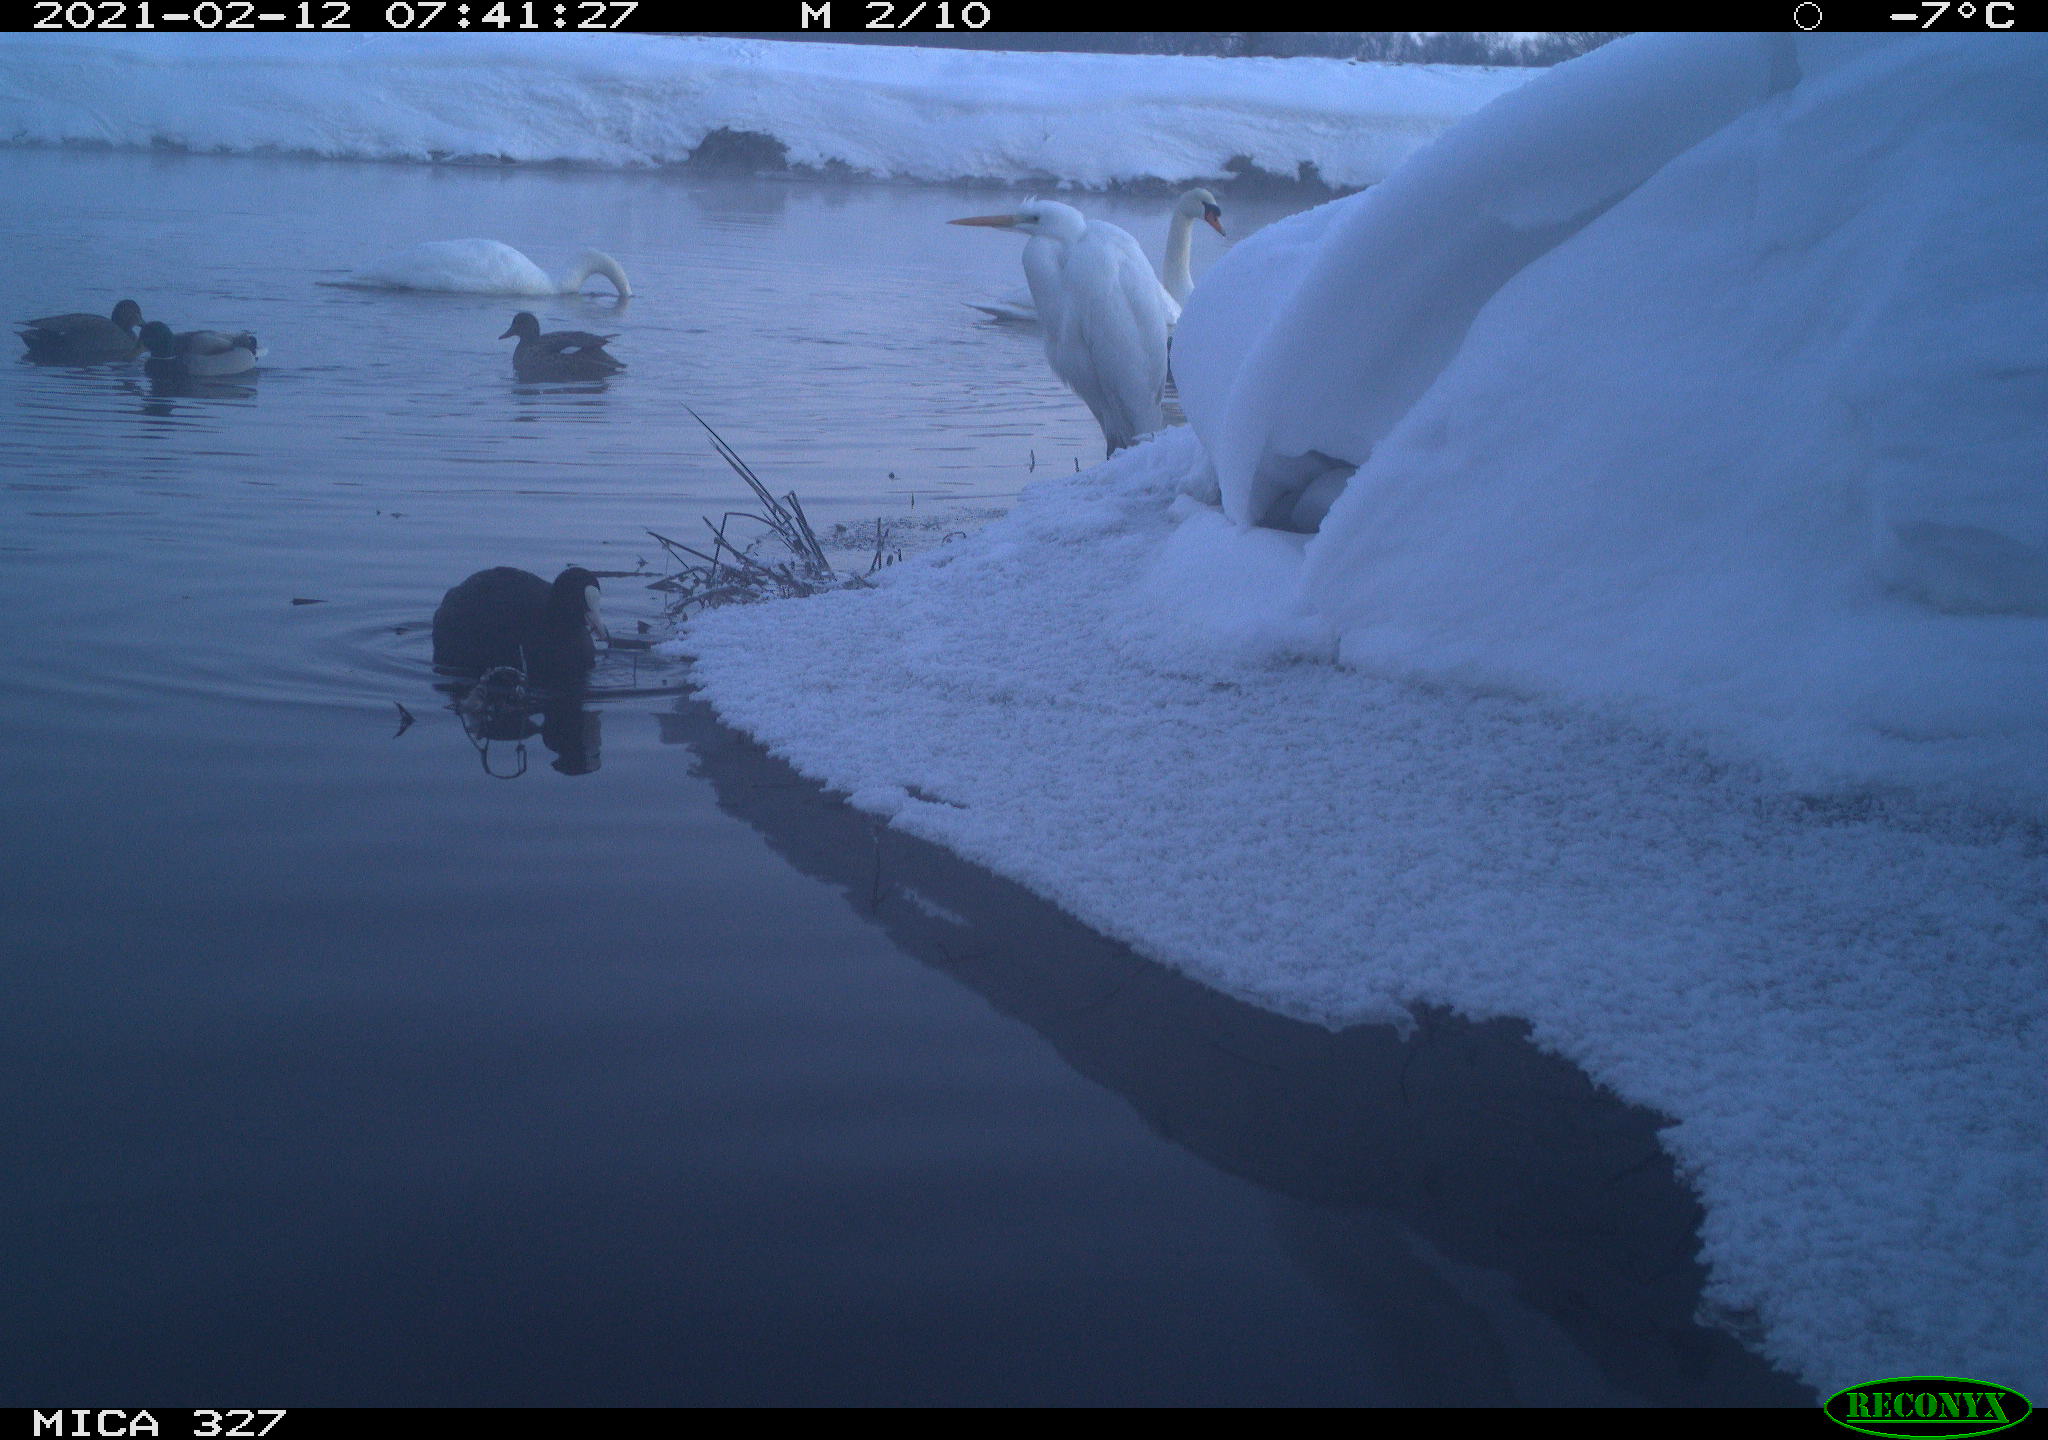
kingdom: Animalia
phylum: Chordata
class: Aves
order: Pelecaniformes
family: Ardeidae
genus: Ardea
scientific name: Ardea alba
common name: Great egret
